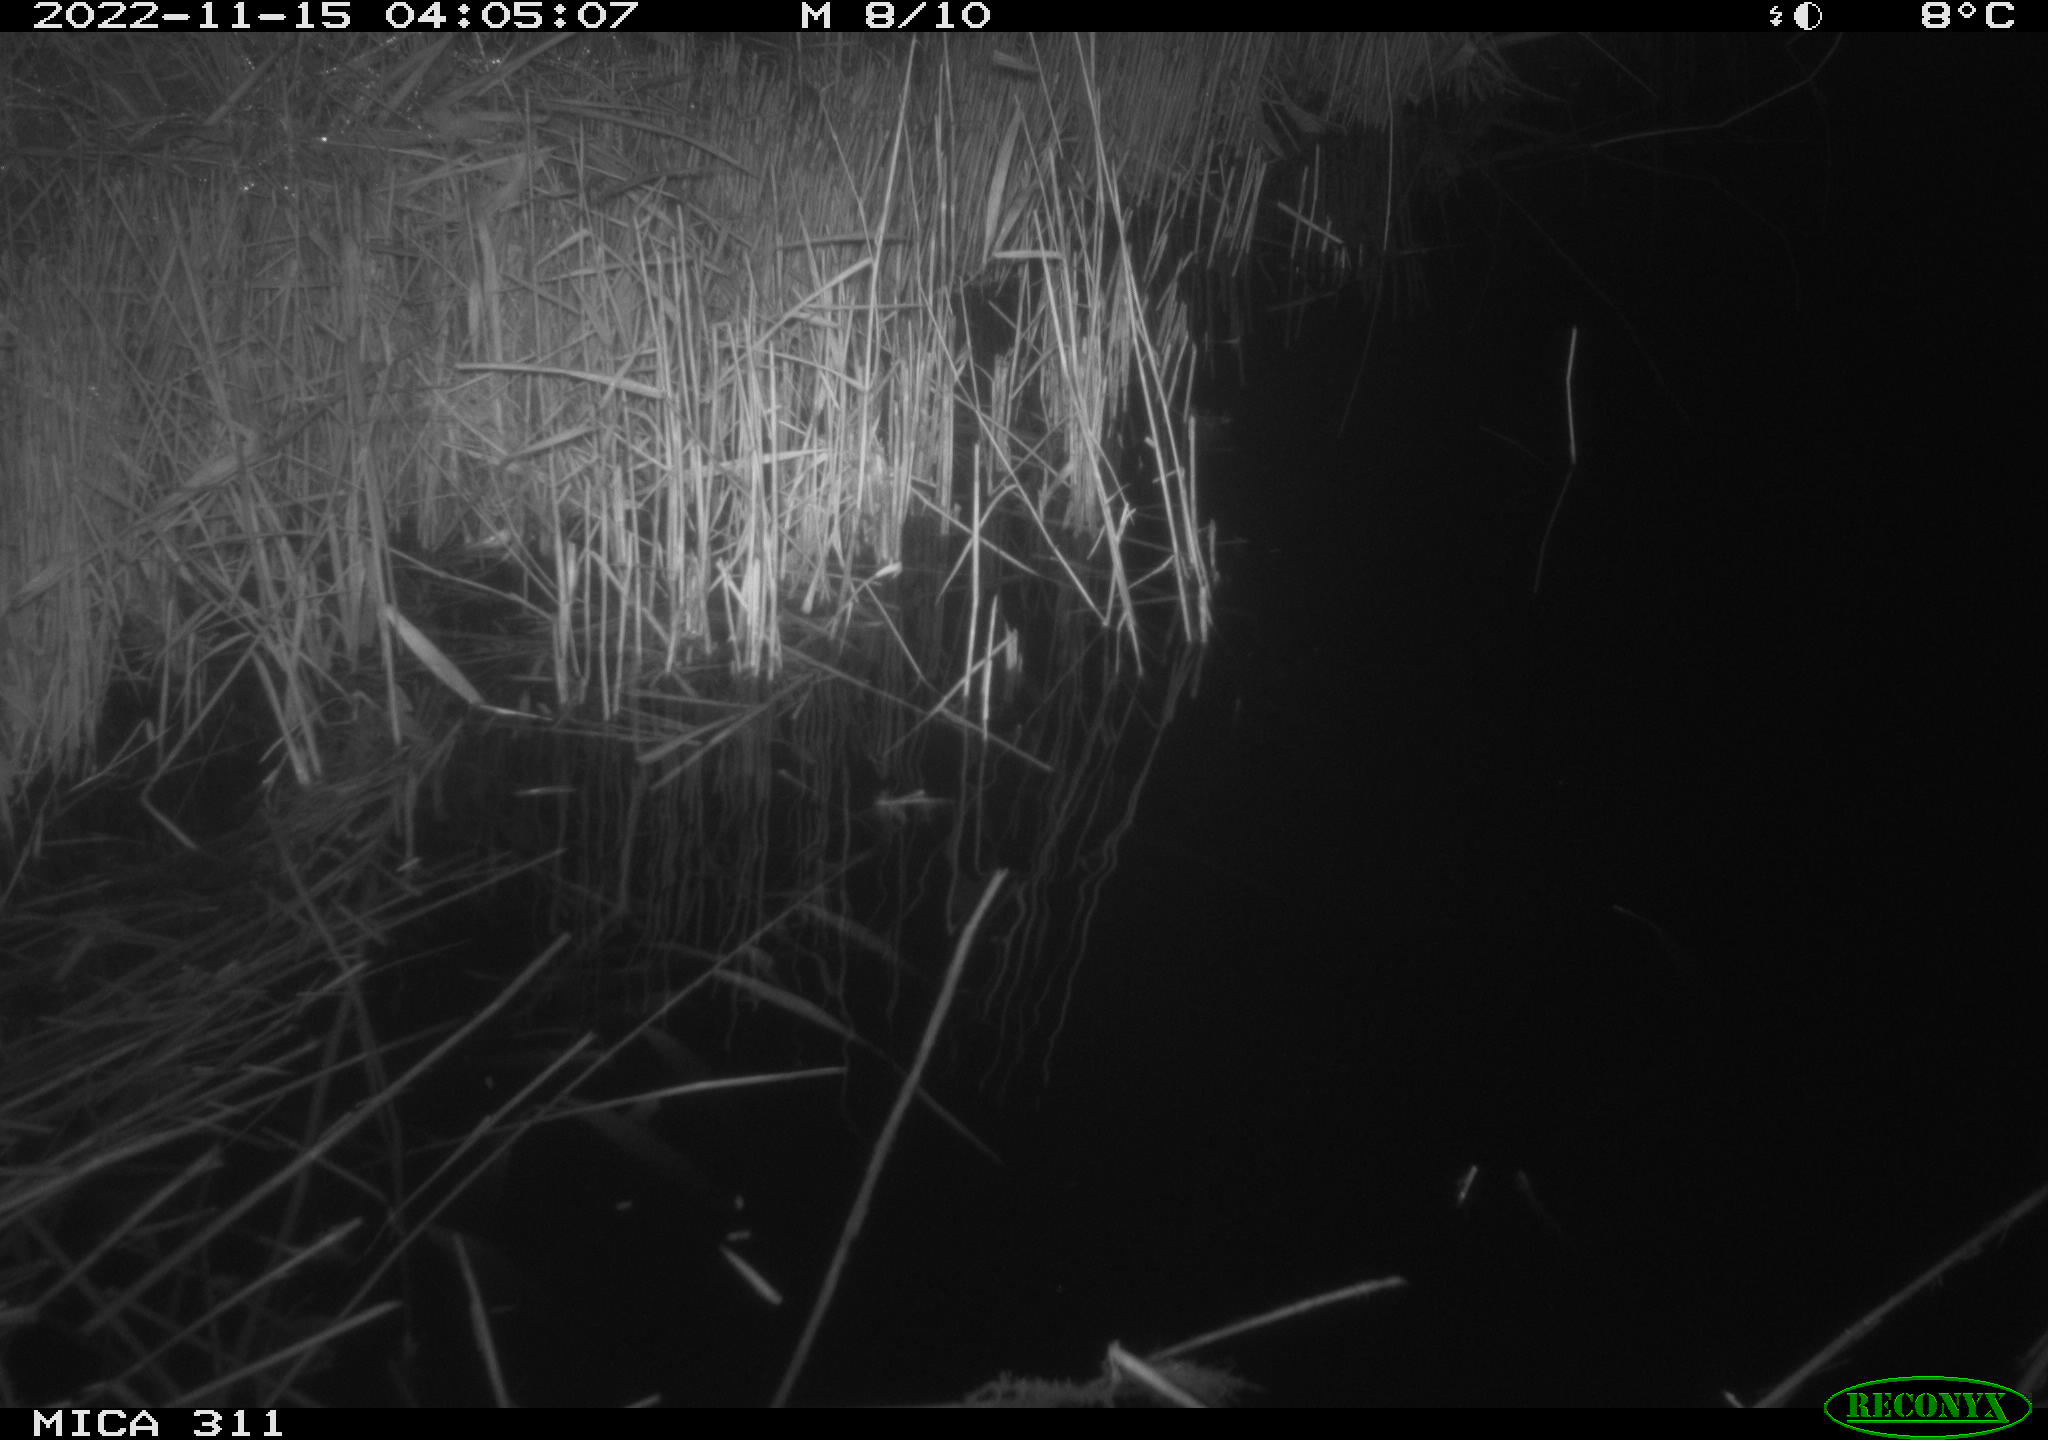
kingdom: Animalia
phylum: Chordata
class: Mammalia
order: Rodentia
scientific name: Rodentia
